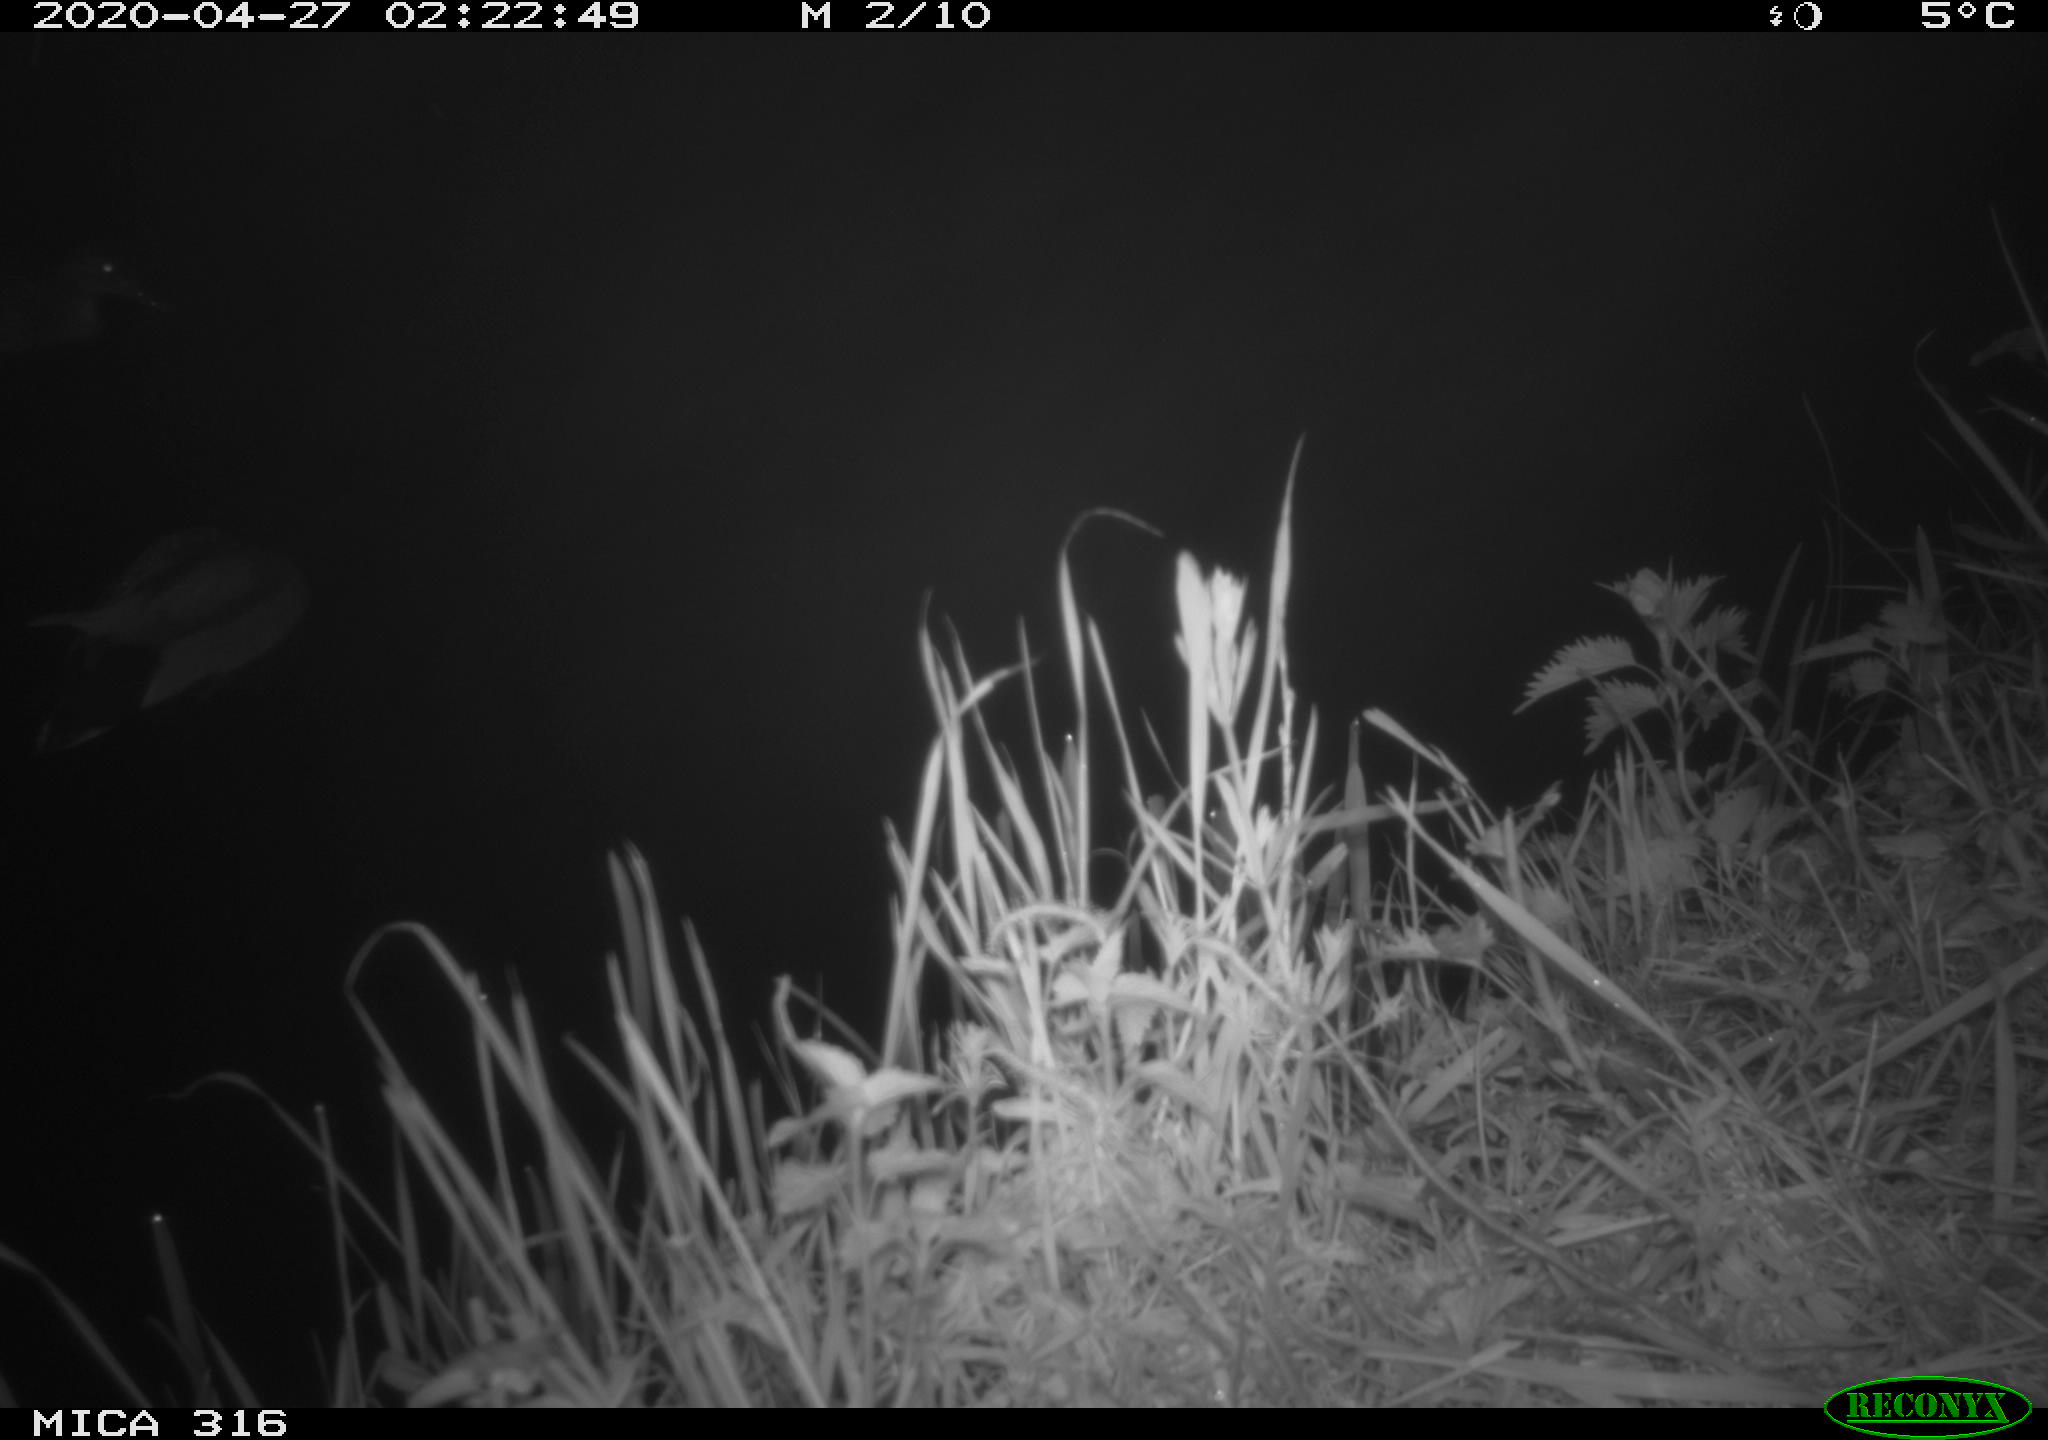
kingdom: Animalia
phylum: Chordata
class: Aves
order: Anseriformes
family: Anatidae
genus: Anas
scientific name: Anas platyrhynchos
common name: Mallard
